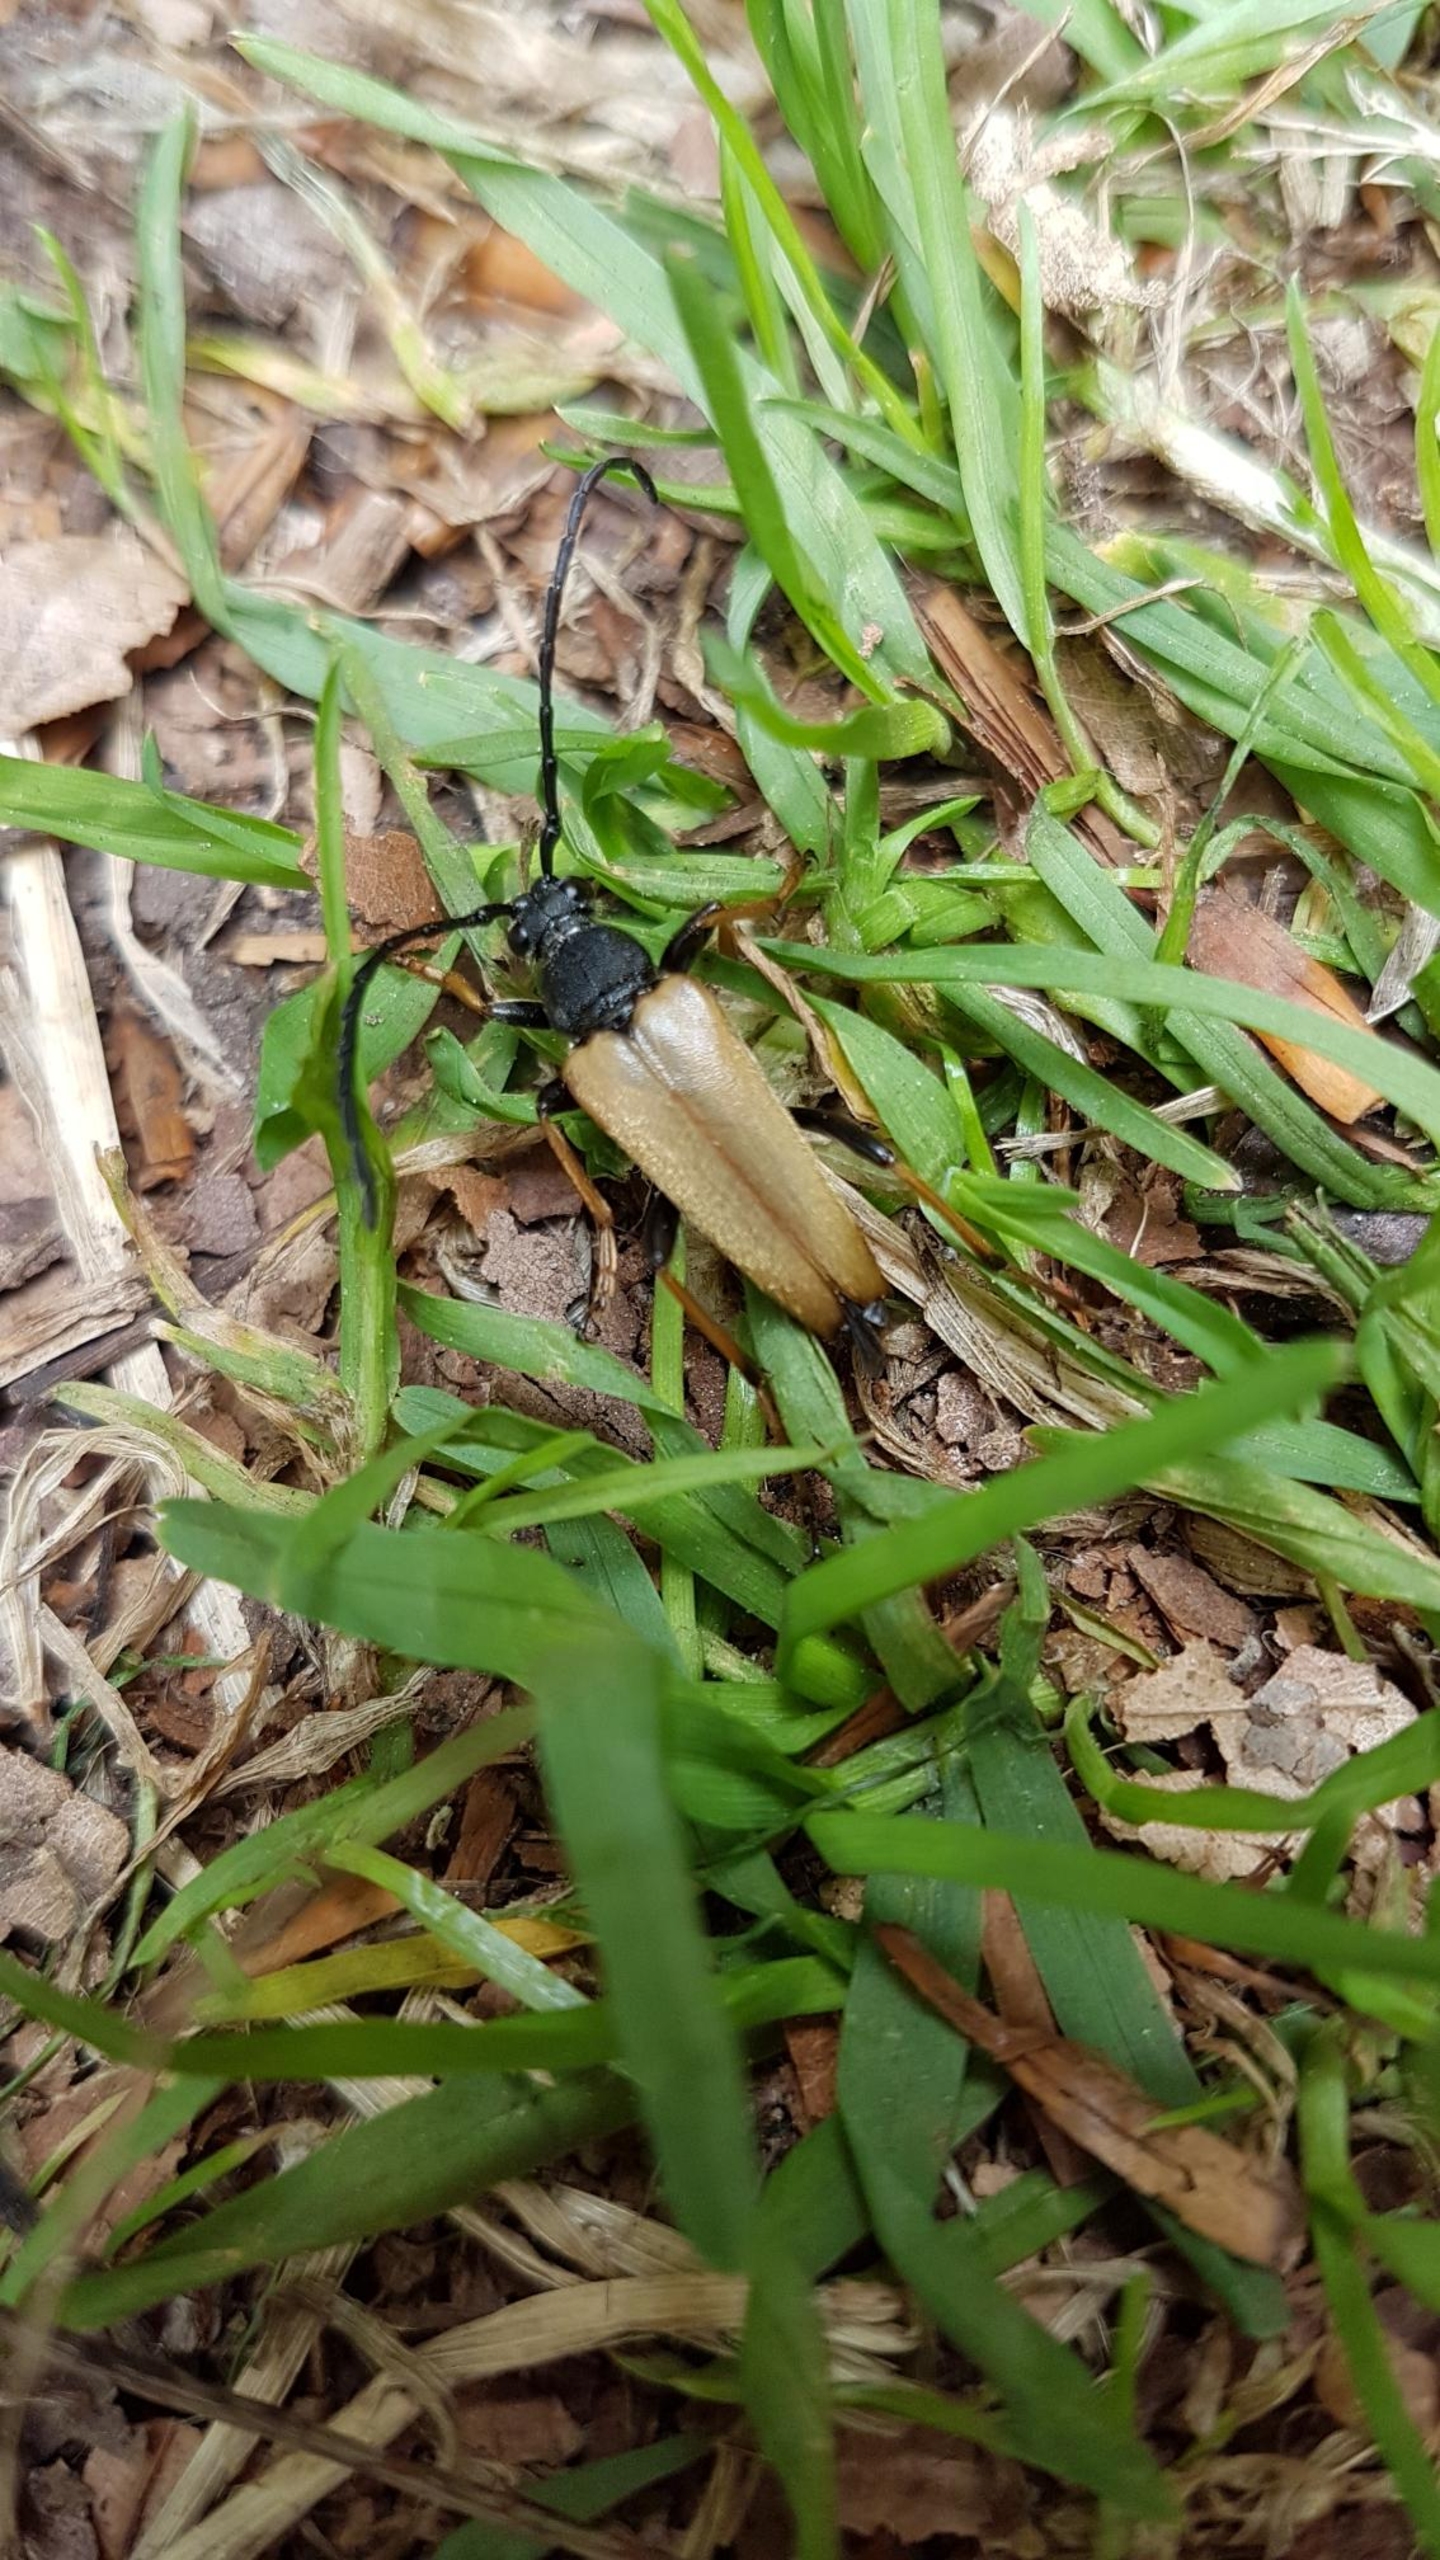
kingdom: Animalia
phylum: Arthropoda
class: Insecta
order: Coleoptera
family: Cerambycidae
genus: Stictoleptura
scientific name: Stictoleptura rubra
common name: Rød blomsterbuk
